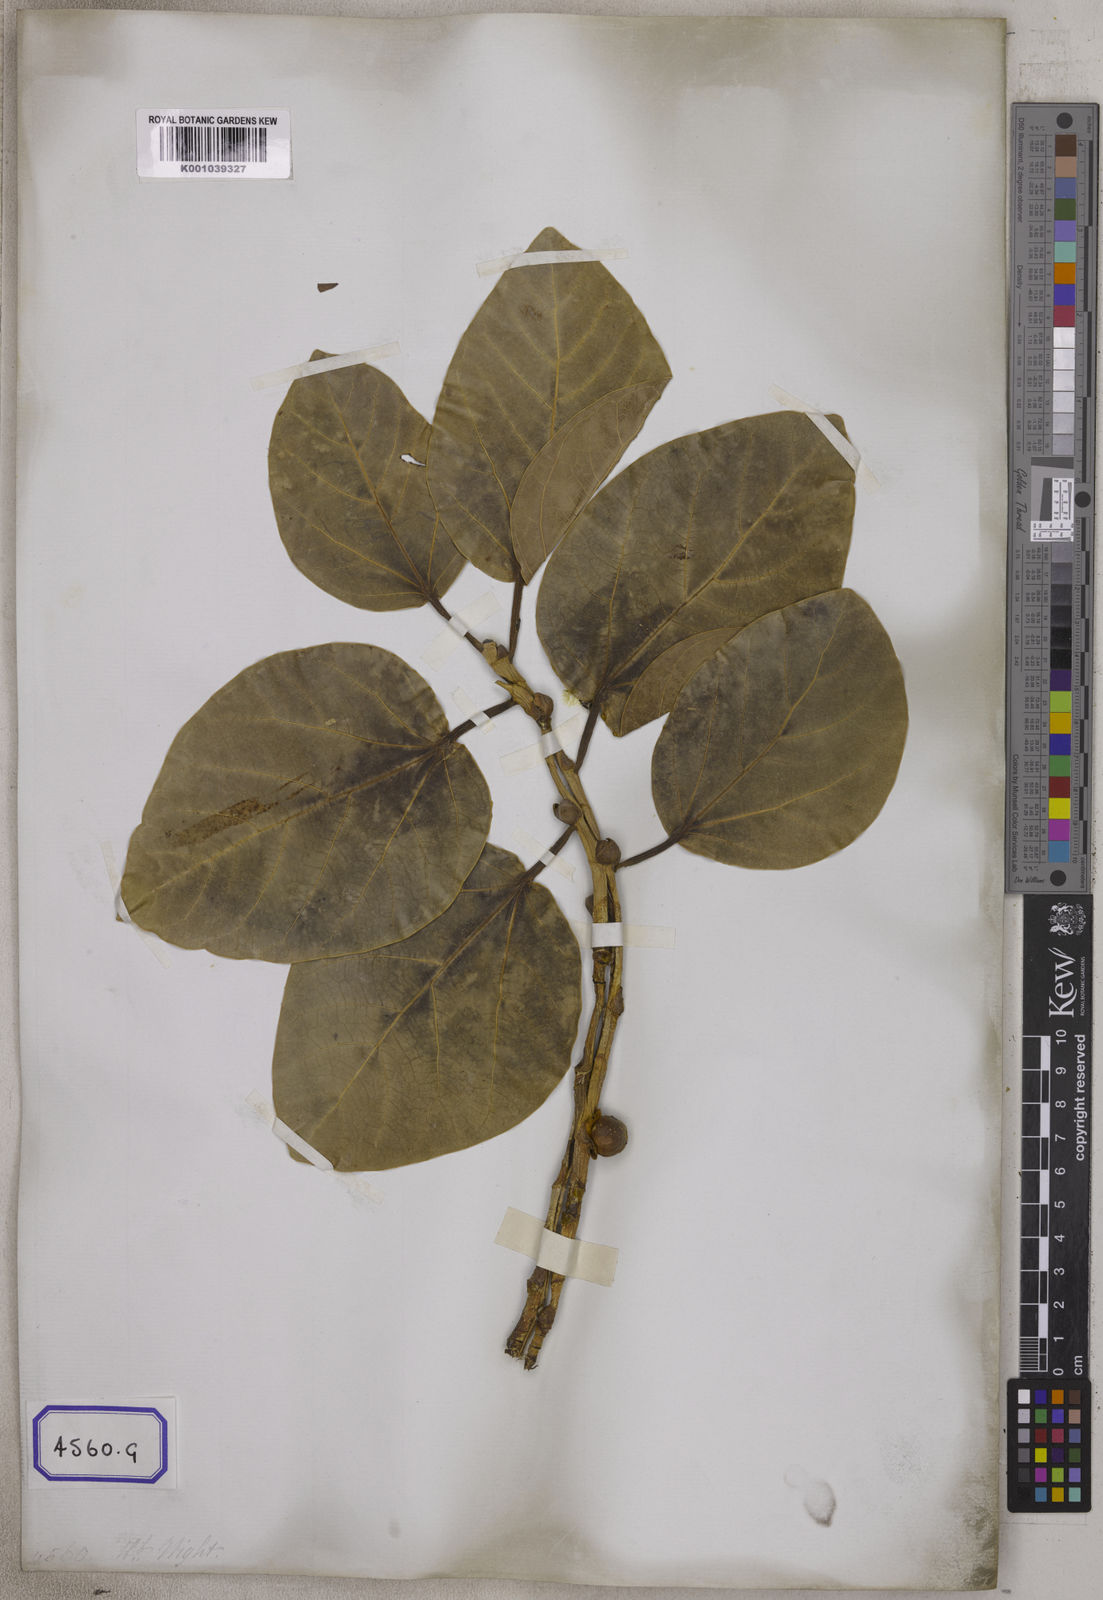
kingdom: Plantae
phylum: Tracheophyta
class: Magnoliopsida
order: Rosales
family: Moraceae
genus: Ficus
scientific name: Ficus
